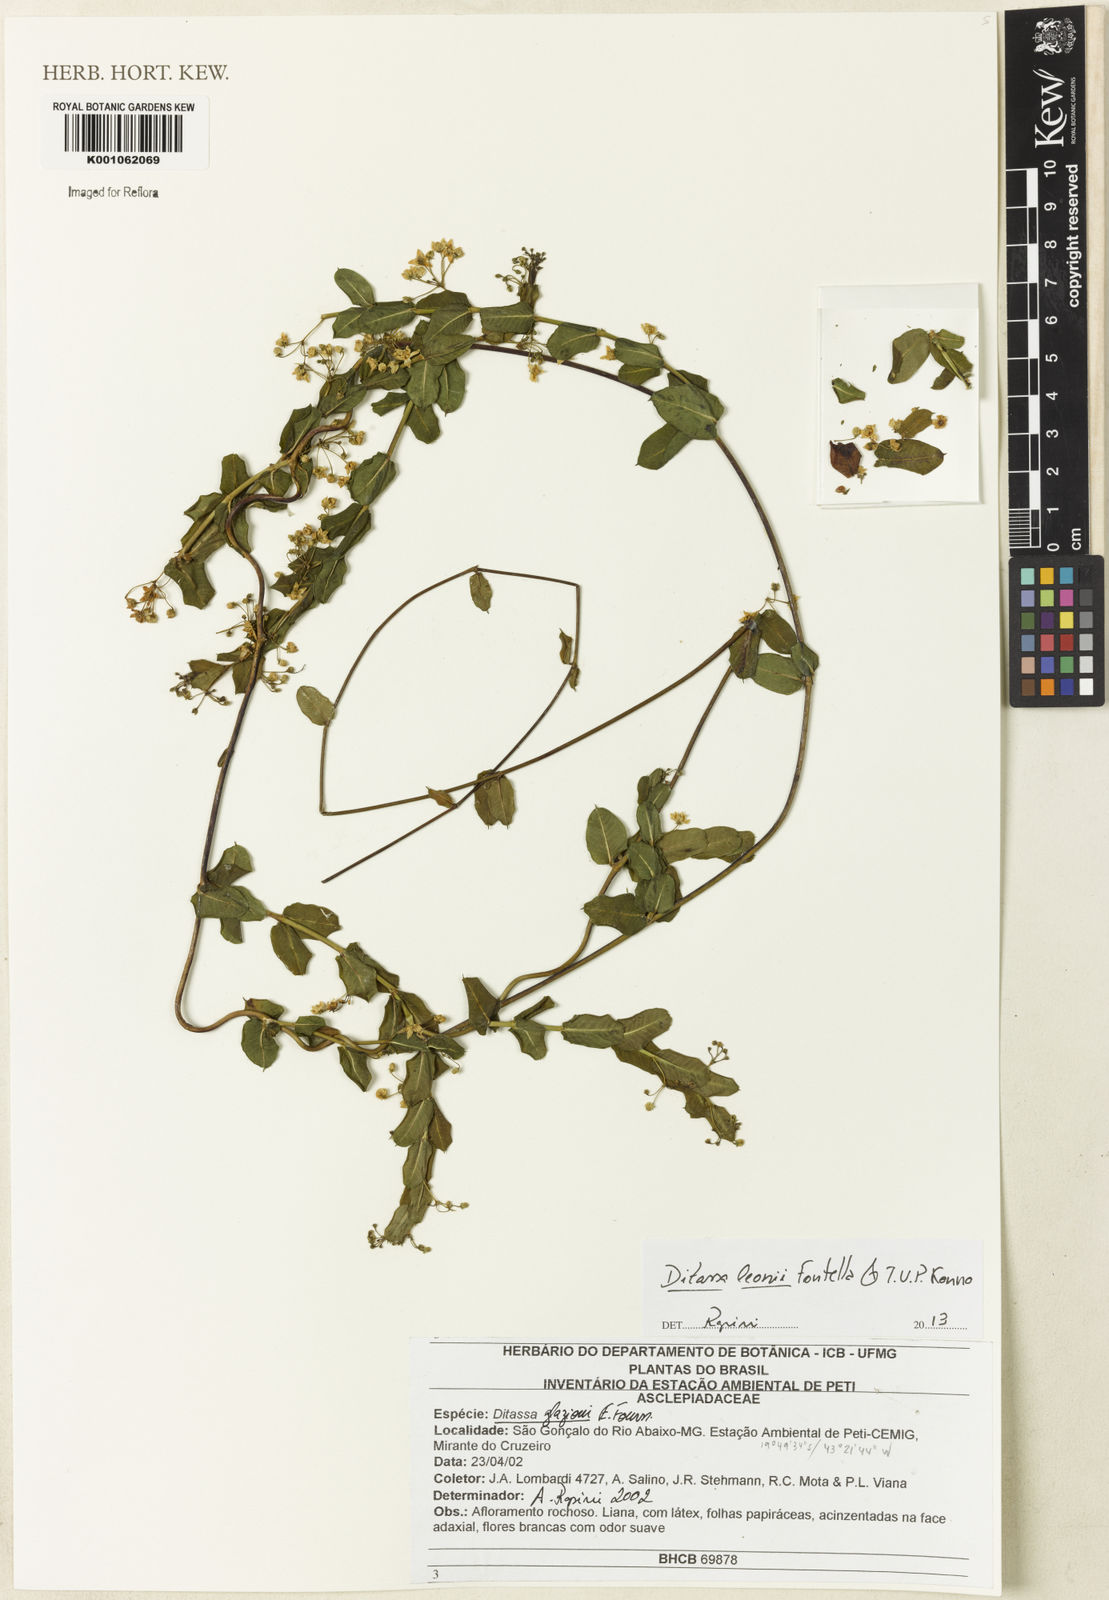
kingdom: Plantae
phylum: Tracheophyta
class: Magnoliopsida
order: Gentianales
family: Apocynaceae
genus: Ditassa
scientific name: Ditassa leonii
